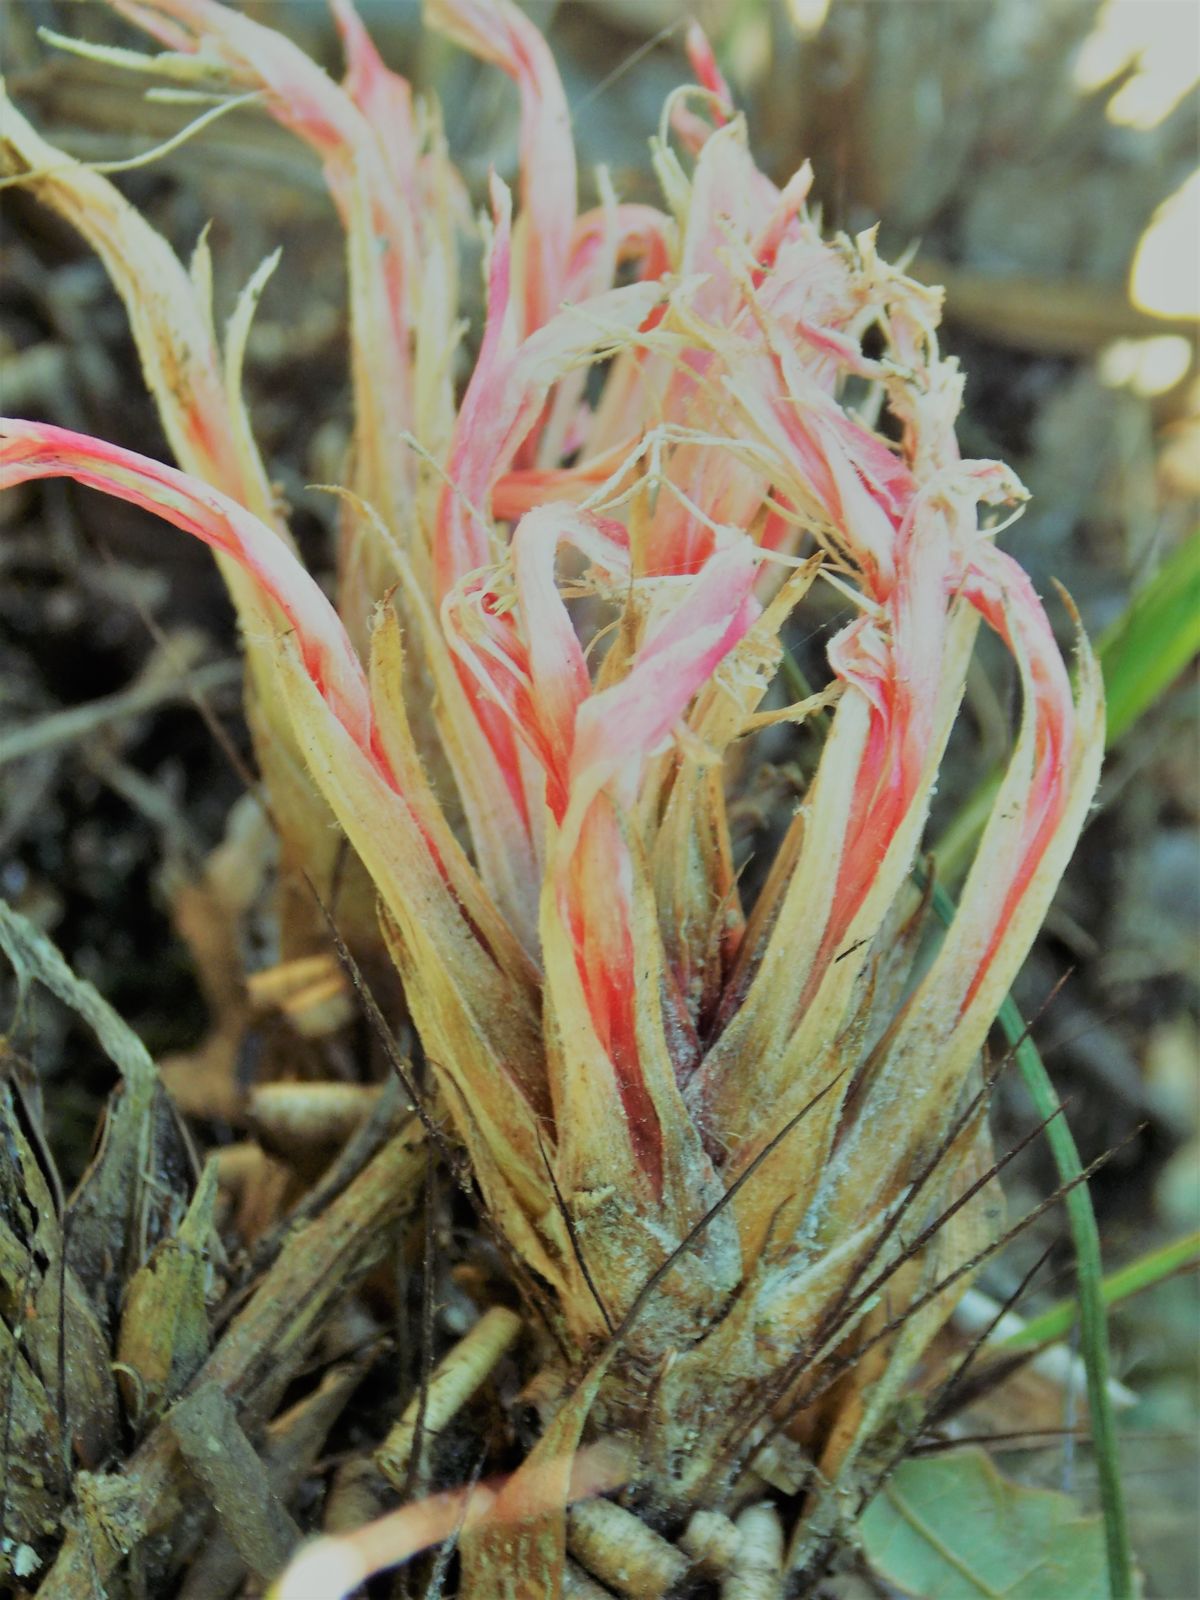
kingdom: Plantae
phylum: Tracheophyta
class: Liliopsida
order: Poales
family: Bromeliaceae
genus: Pitcairnia
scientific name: Pitcairnia heterophylla
